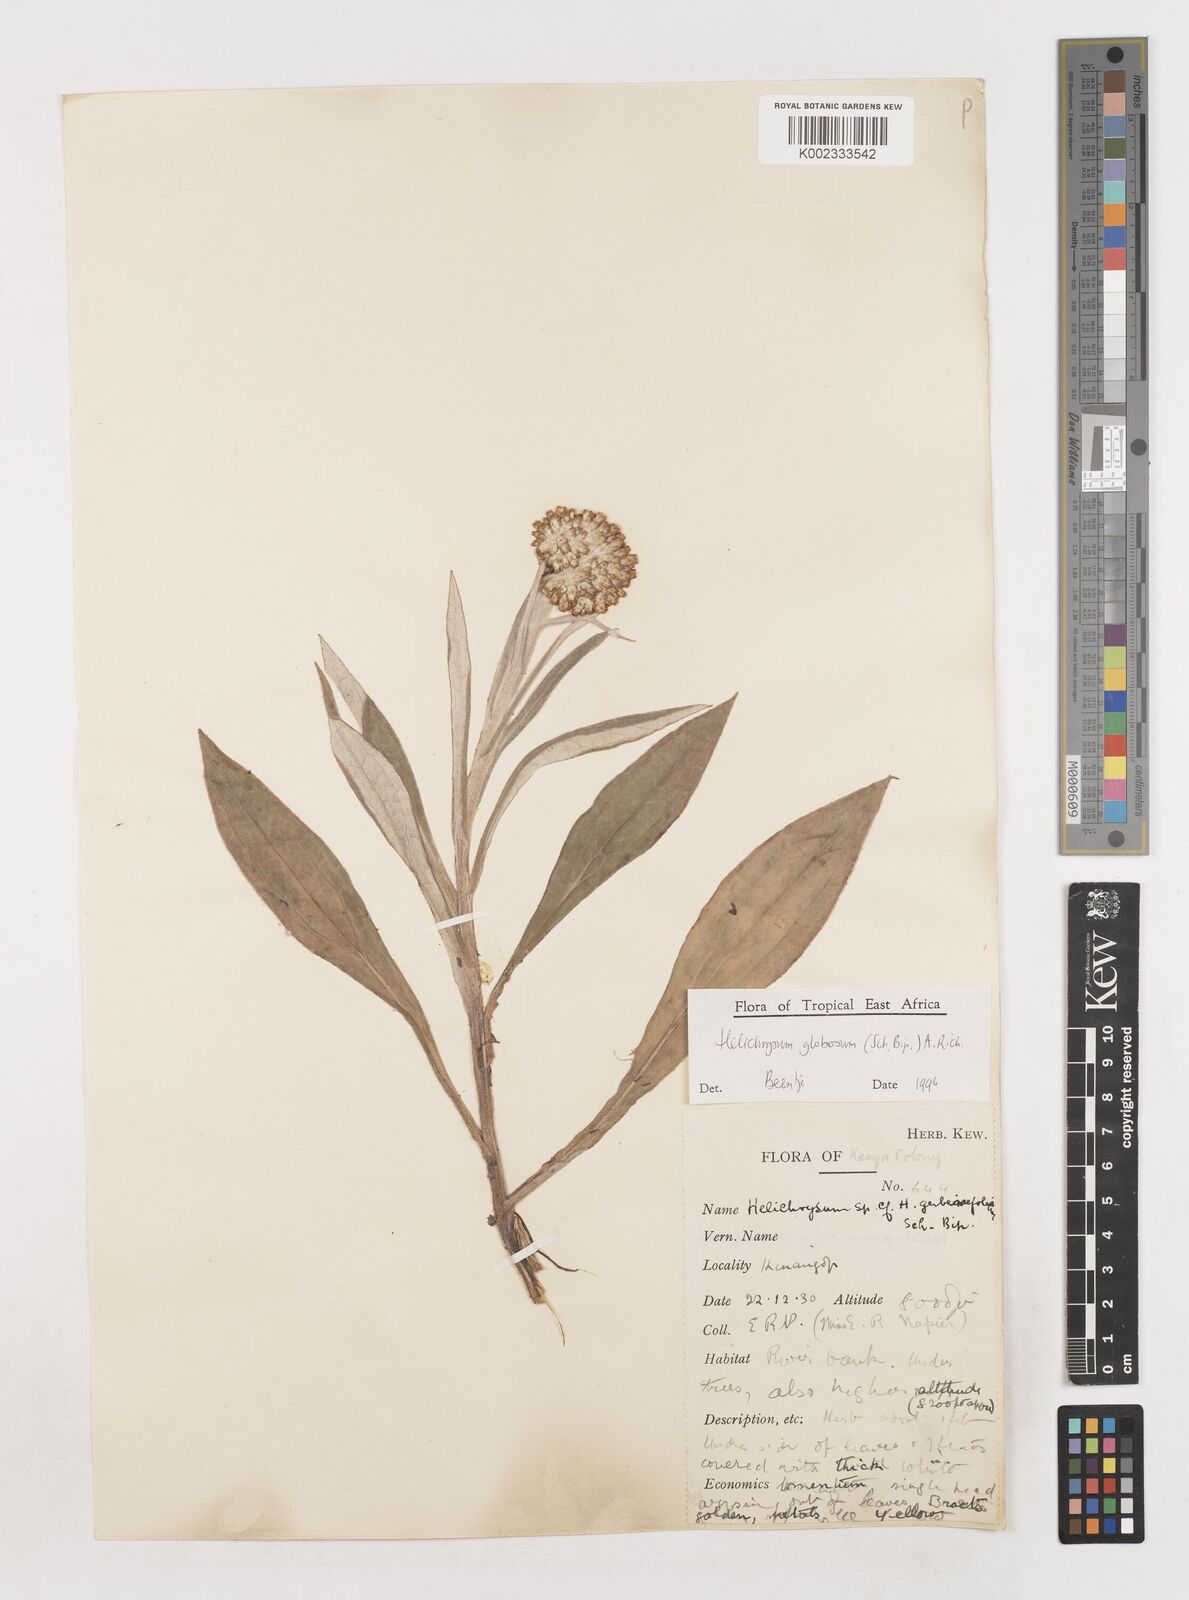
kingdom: Plantae
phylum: Tracheophyta
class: Magnoliopsida
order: Asterales
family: Asteraceae
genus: Helichrysum
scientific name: Helichrysum globosum
